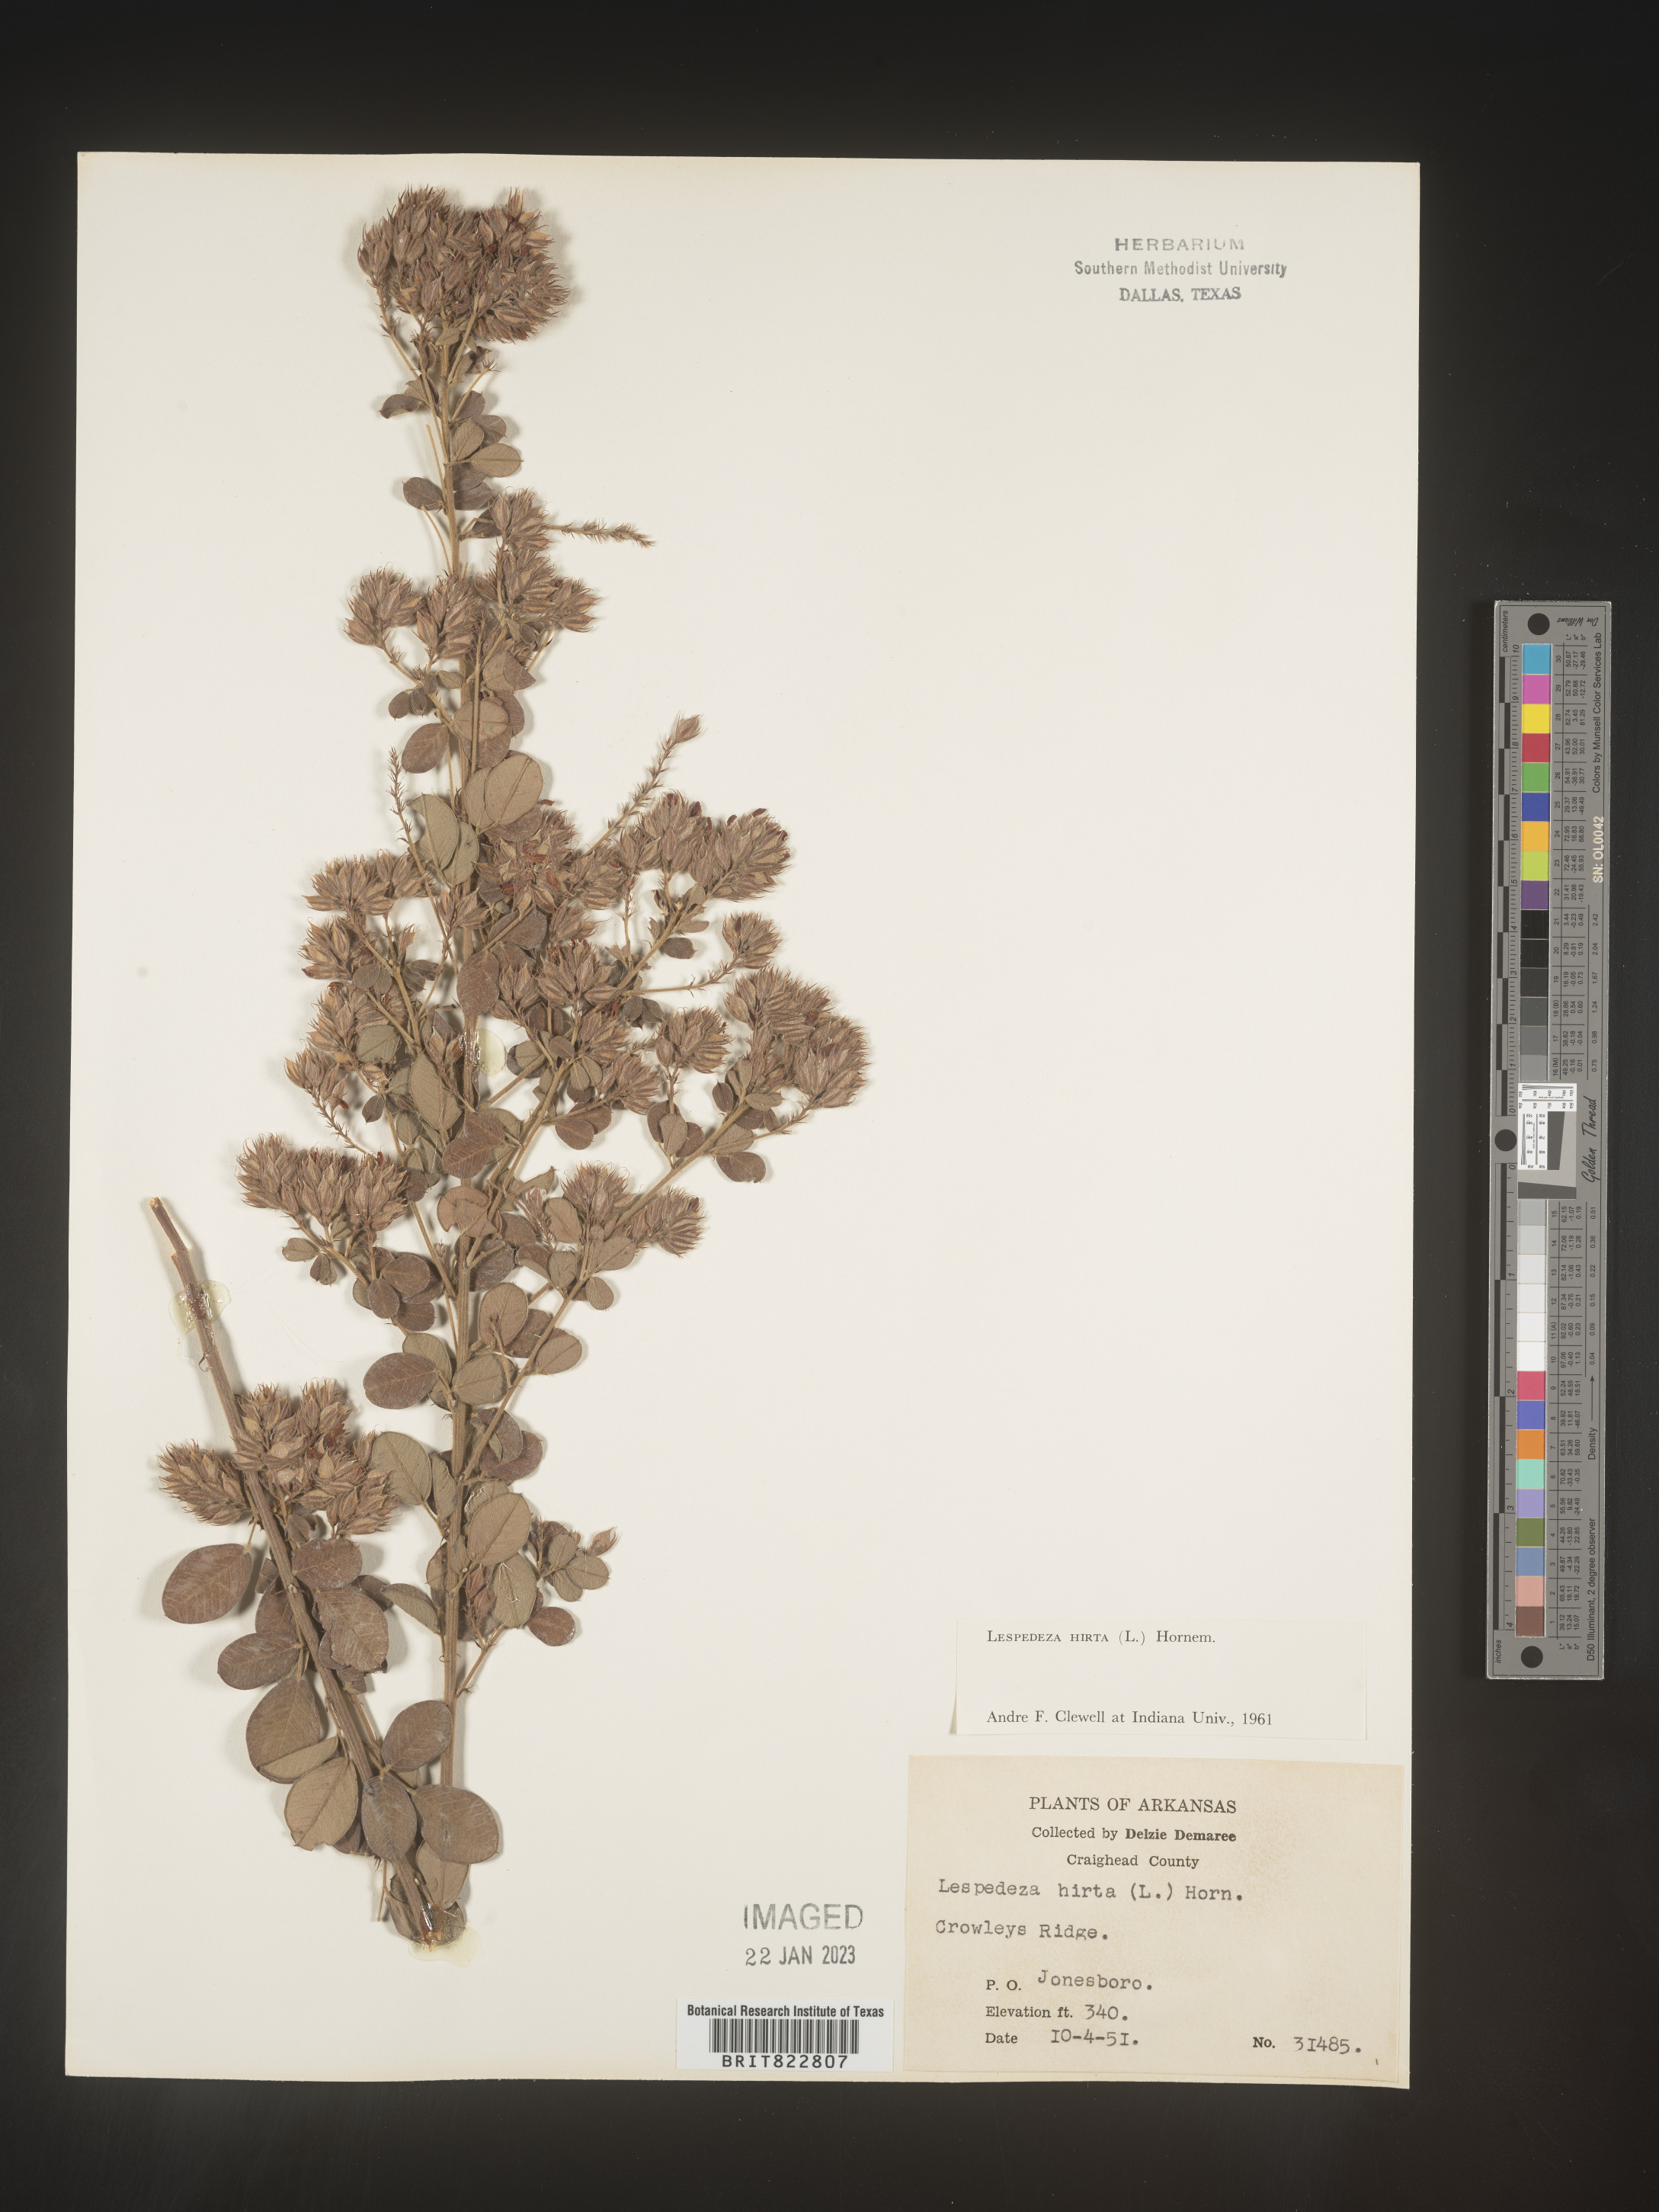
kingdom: Plantae
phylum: Tracheophyta
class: Magnoliopsida
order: Fabales
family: Fabaceae
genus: Lespedeza
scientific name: Lespedeza hirta
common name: Hairy lespedeza
